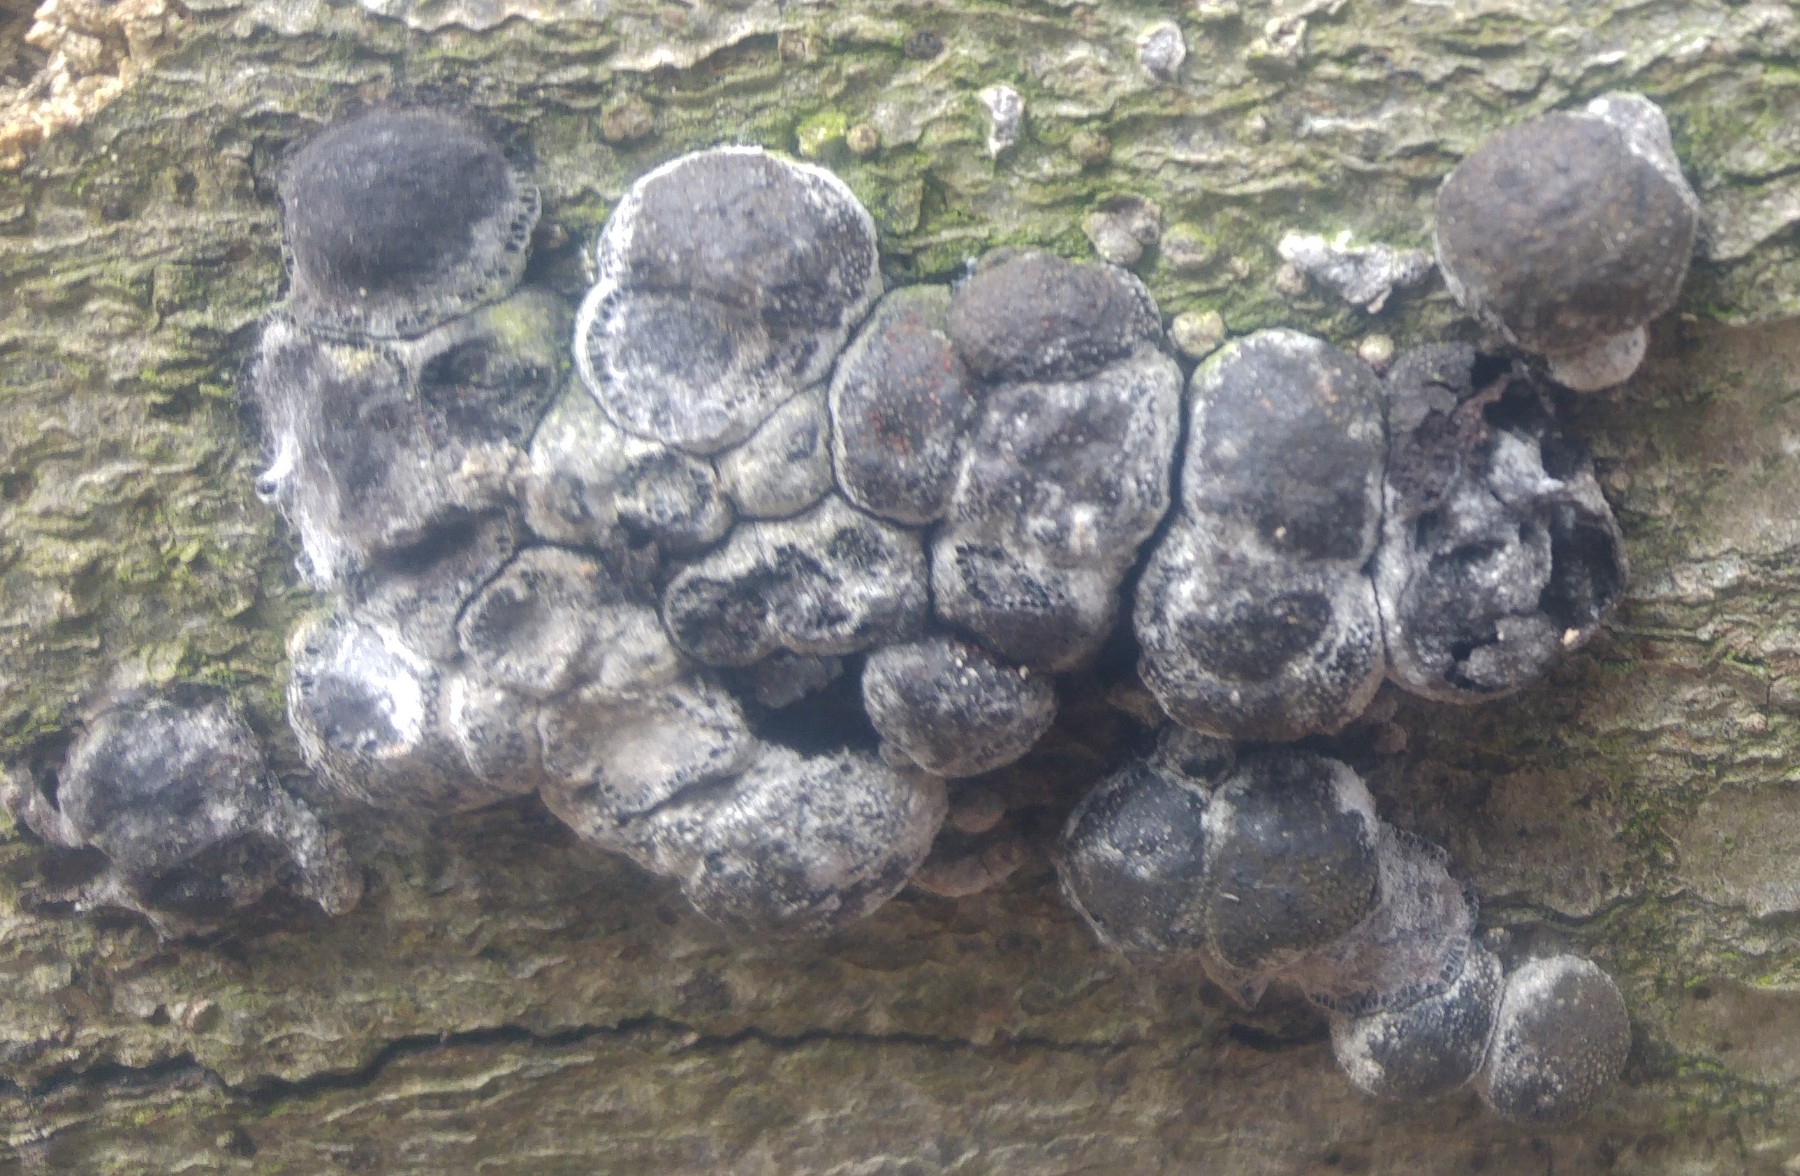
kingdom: Fungi
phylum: Ascomycota
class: Sordariomycetes
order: Xylariales
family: Hypoxylaceae
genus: Hypoxylon
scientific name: Hypoxylon fragiforme
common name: kuljordbær
